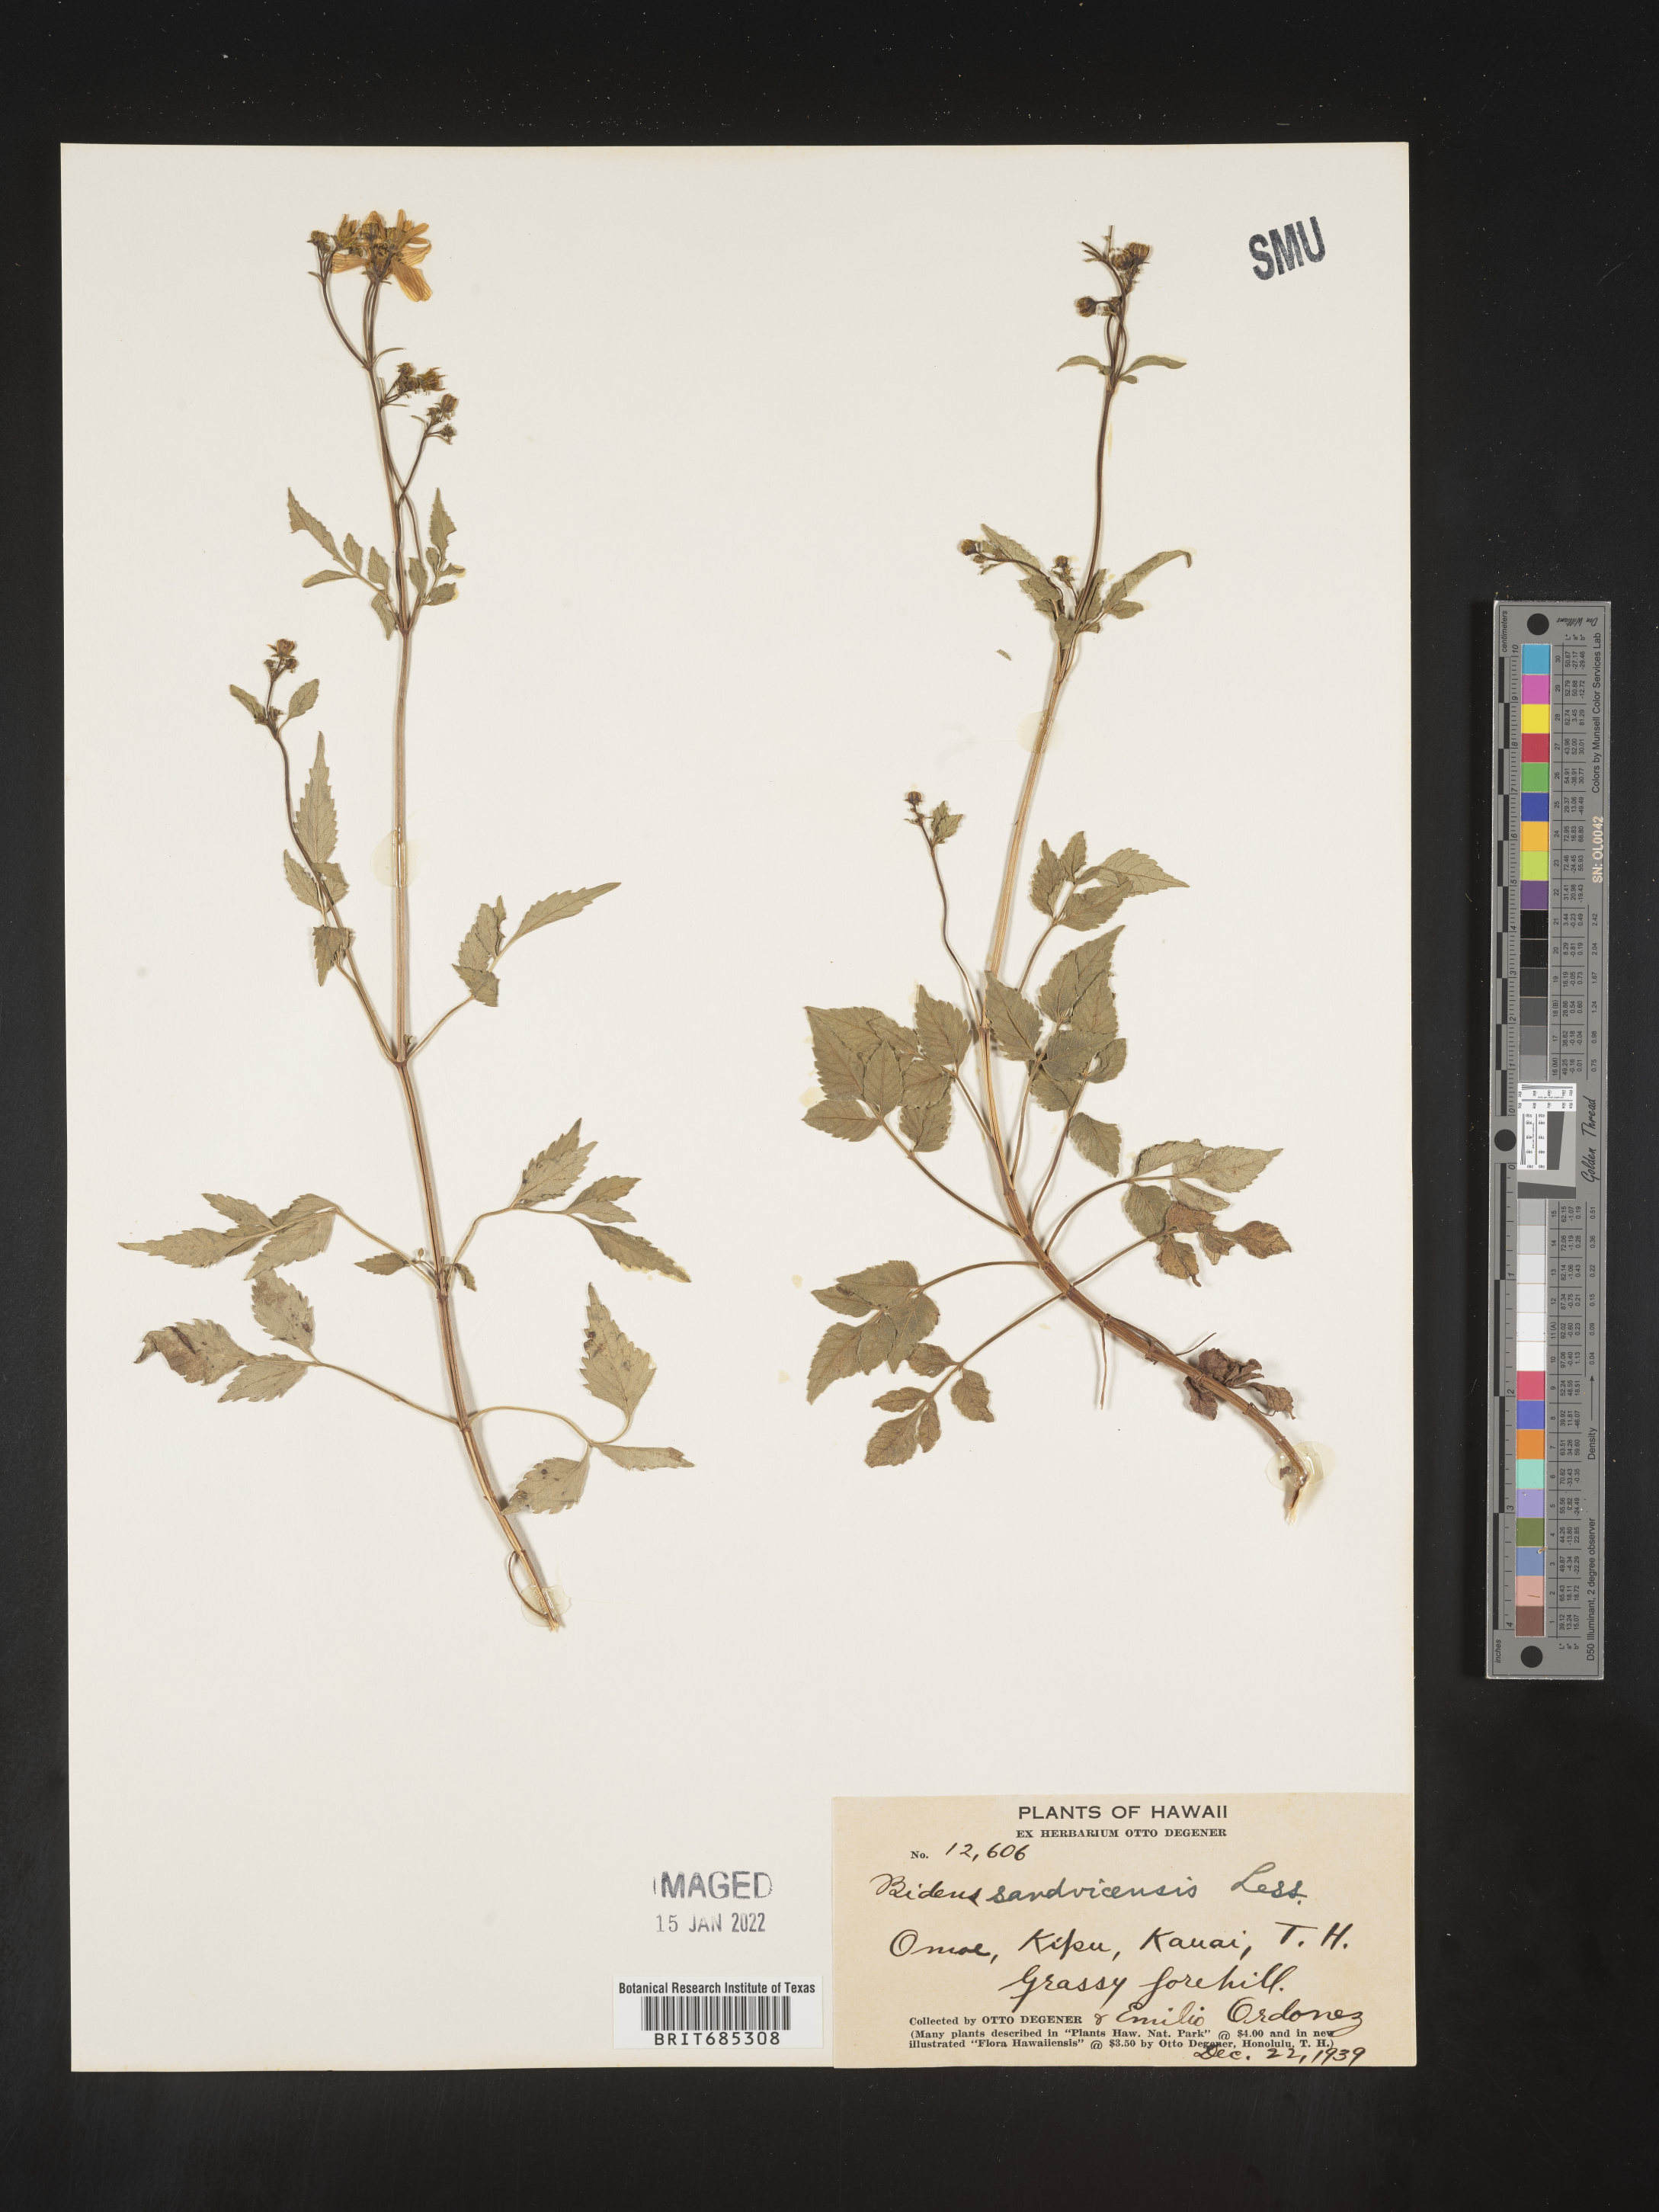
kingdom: Plantae
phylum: Tracheophyta
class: Magnoliopsida
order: Asterales
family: Asteraceae
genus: Bidens
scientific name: Bidens
